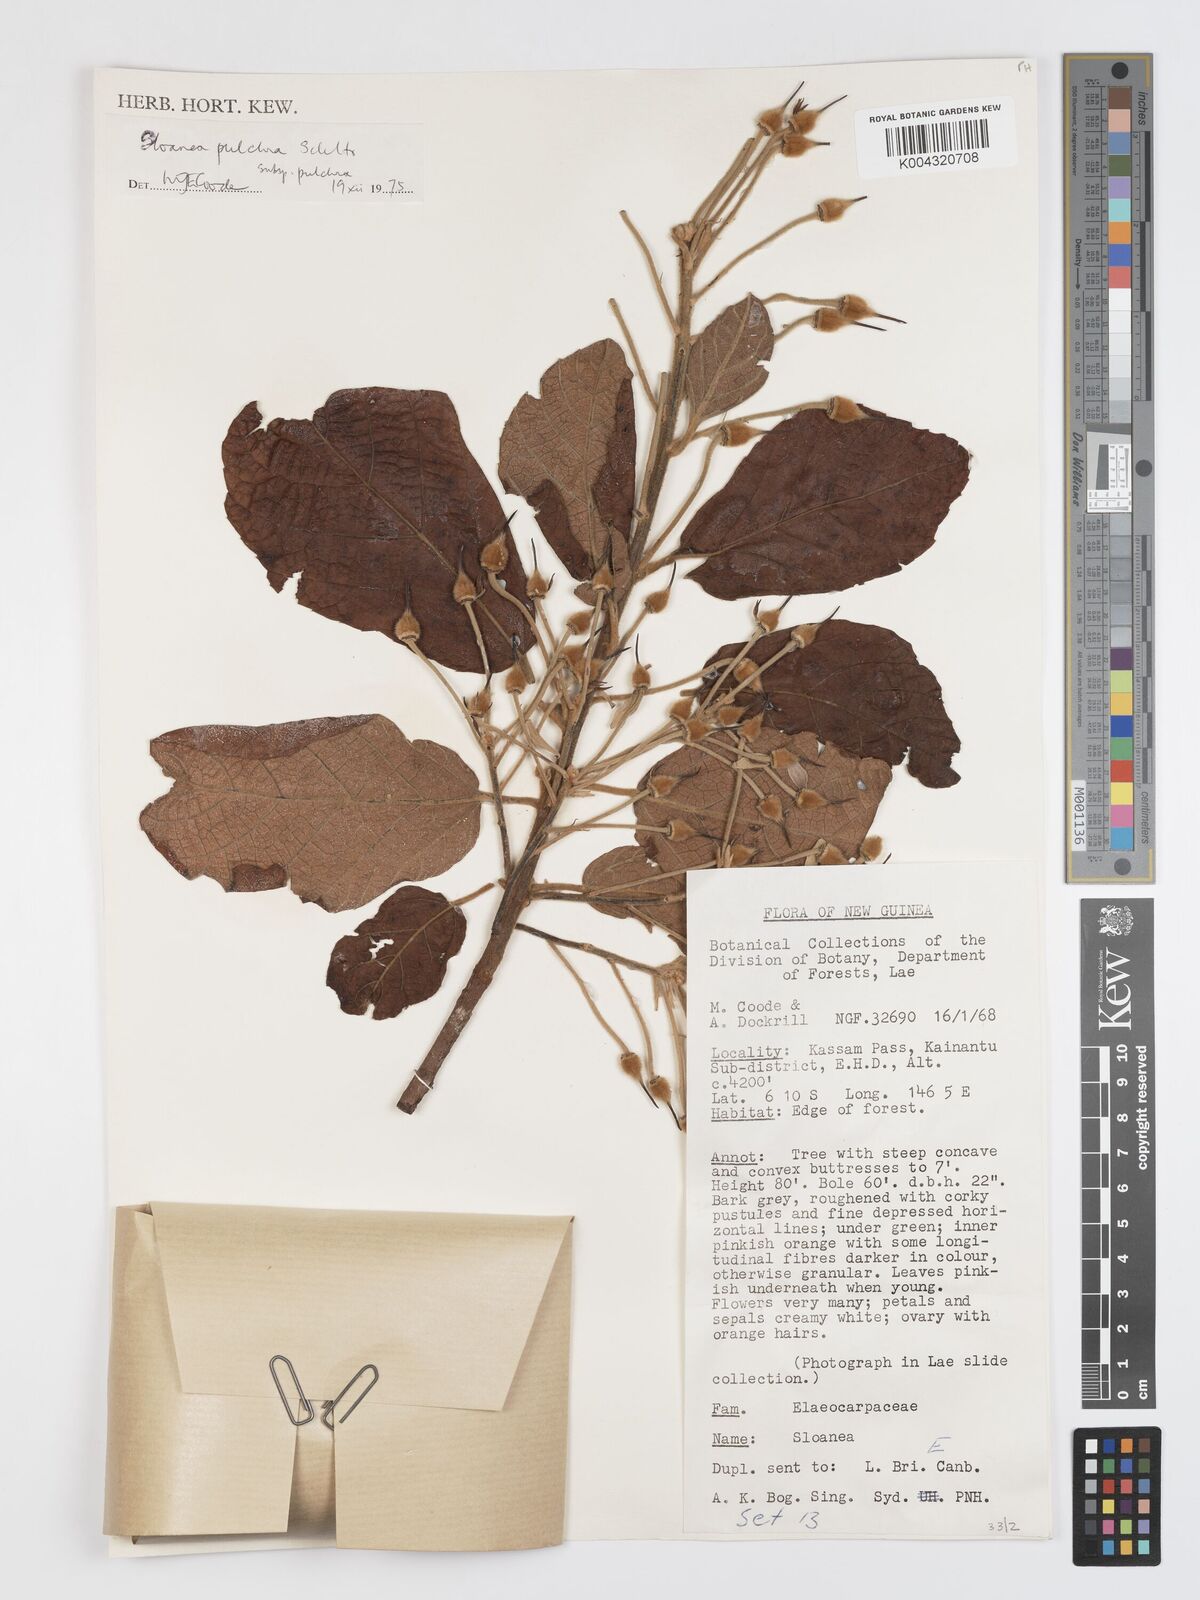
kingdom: Plantae
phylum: Tracheophyta
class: Magnoliopsida
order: Oxalidales
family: Elaeocarpaceae
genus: Sloanea
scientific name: Sloanea pulchra
